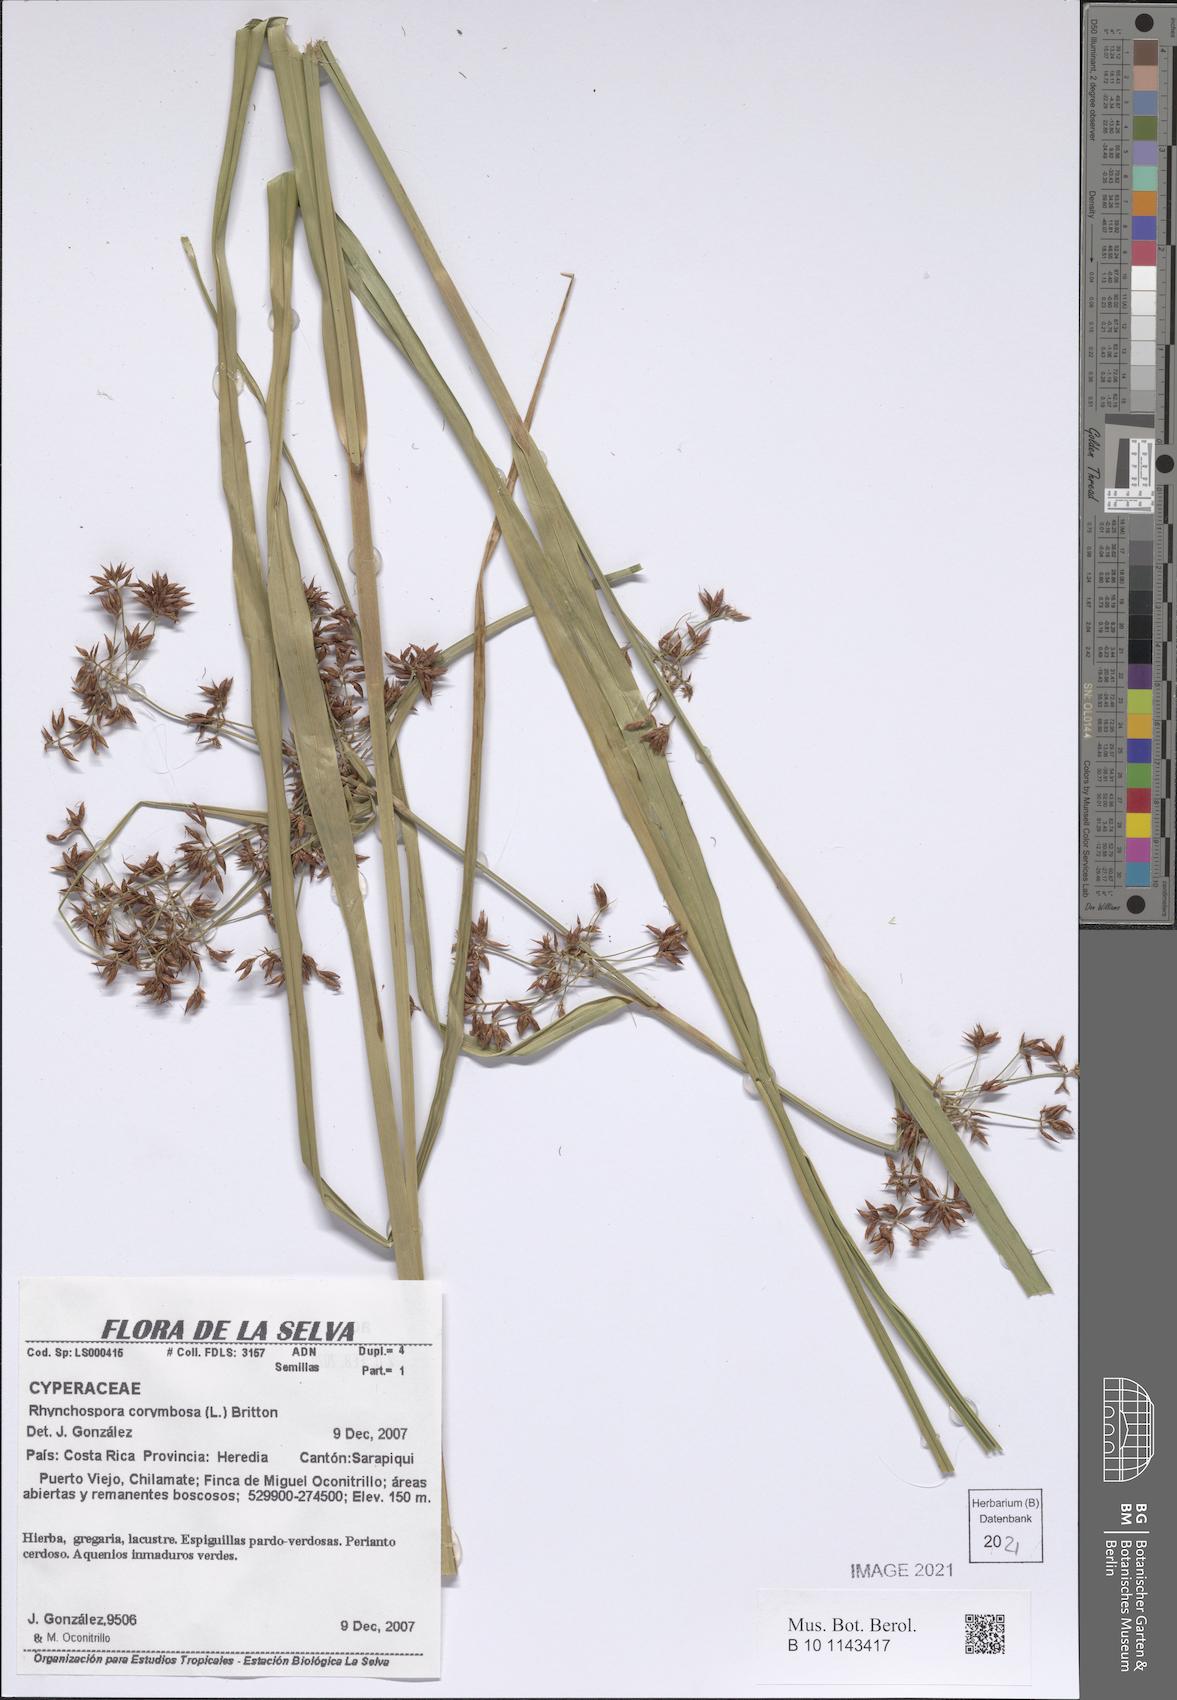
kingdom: Plantae
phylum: Tracheophyta
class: Liliopsida
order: Poales
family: Cyperaceae
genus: Rhynchospora
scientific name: Rhynchospora corymbosa
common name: Golden beak sedge
